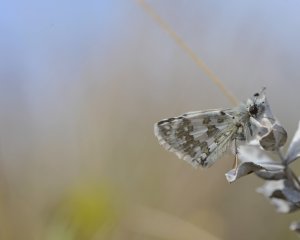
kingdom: Animalia
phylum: Arthropoda
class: Insecta
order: Lepidoptera
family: Hesperiidae
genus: Pyrgus
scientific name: Pyrgus communis
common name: Common Checkered-Skipper
